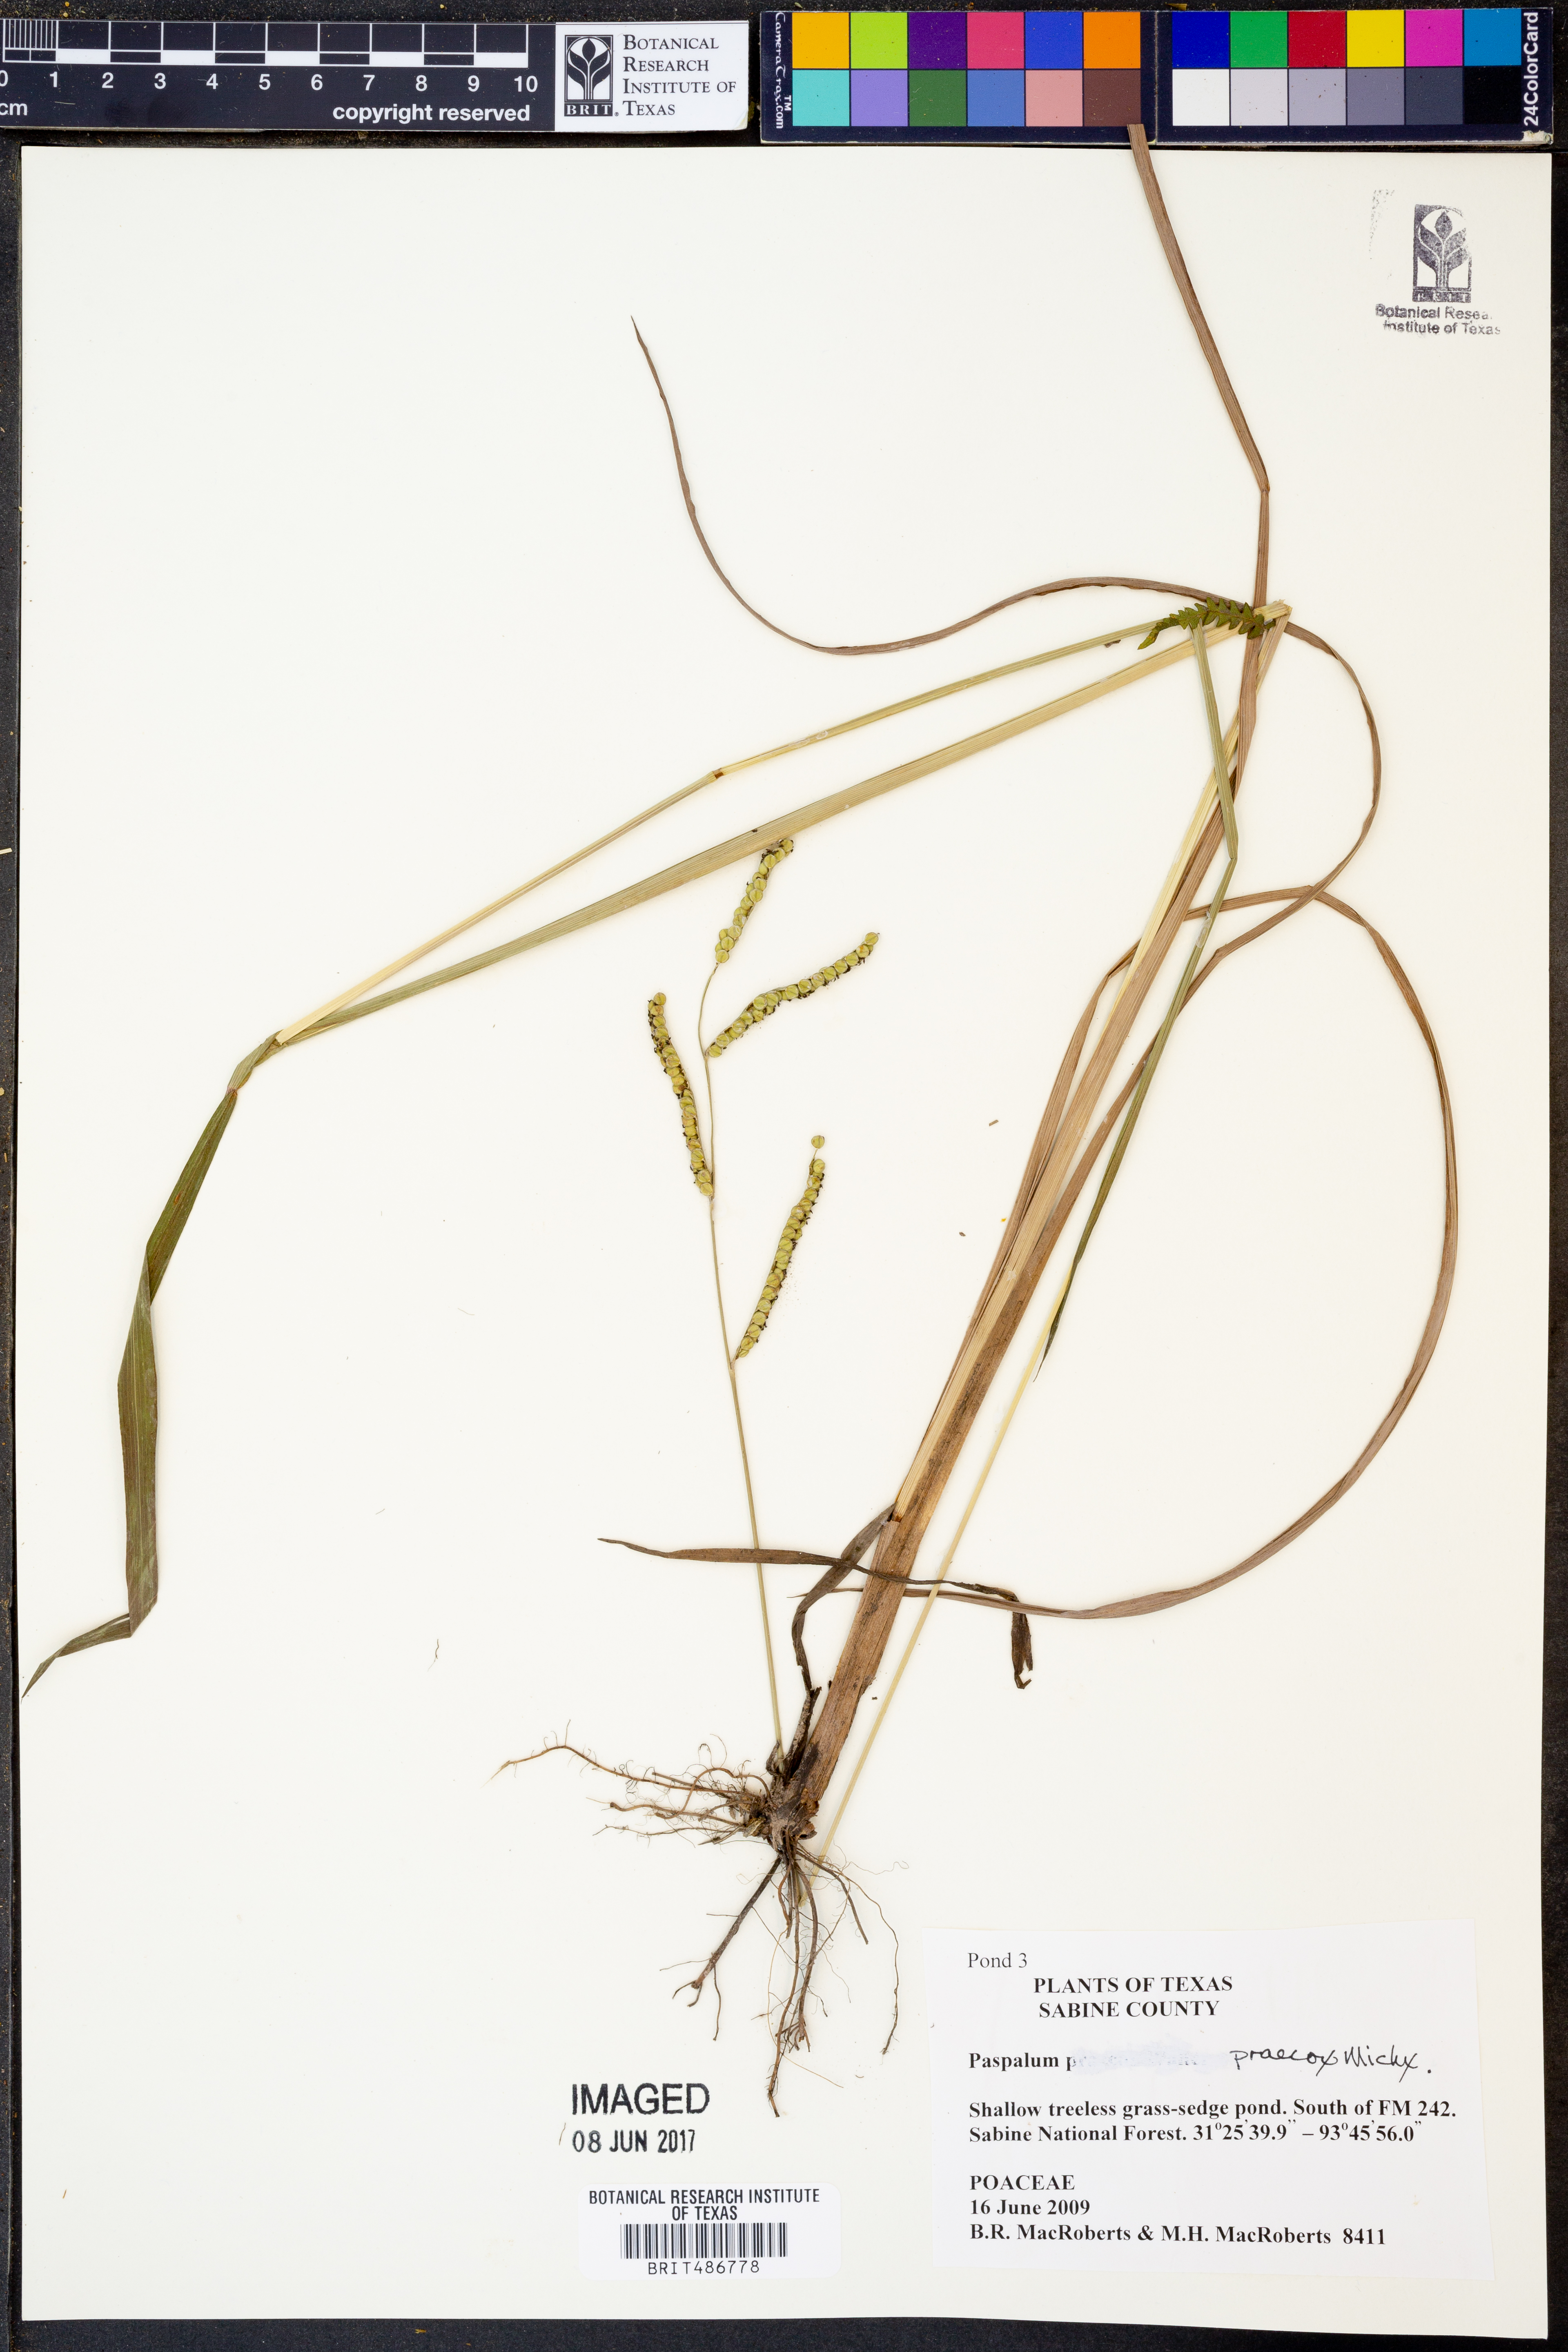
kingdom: Plantae
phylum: Tracheophyta
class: Liliopsida
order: Poales
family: Poaceae
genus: Paspalum
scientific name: Paspalum praecox
